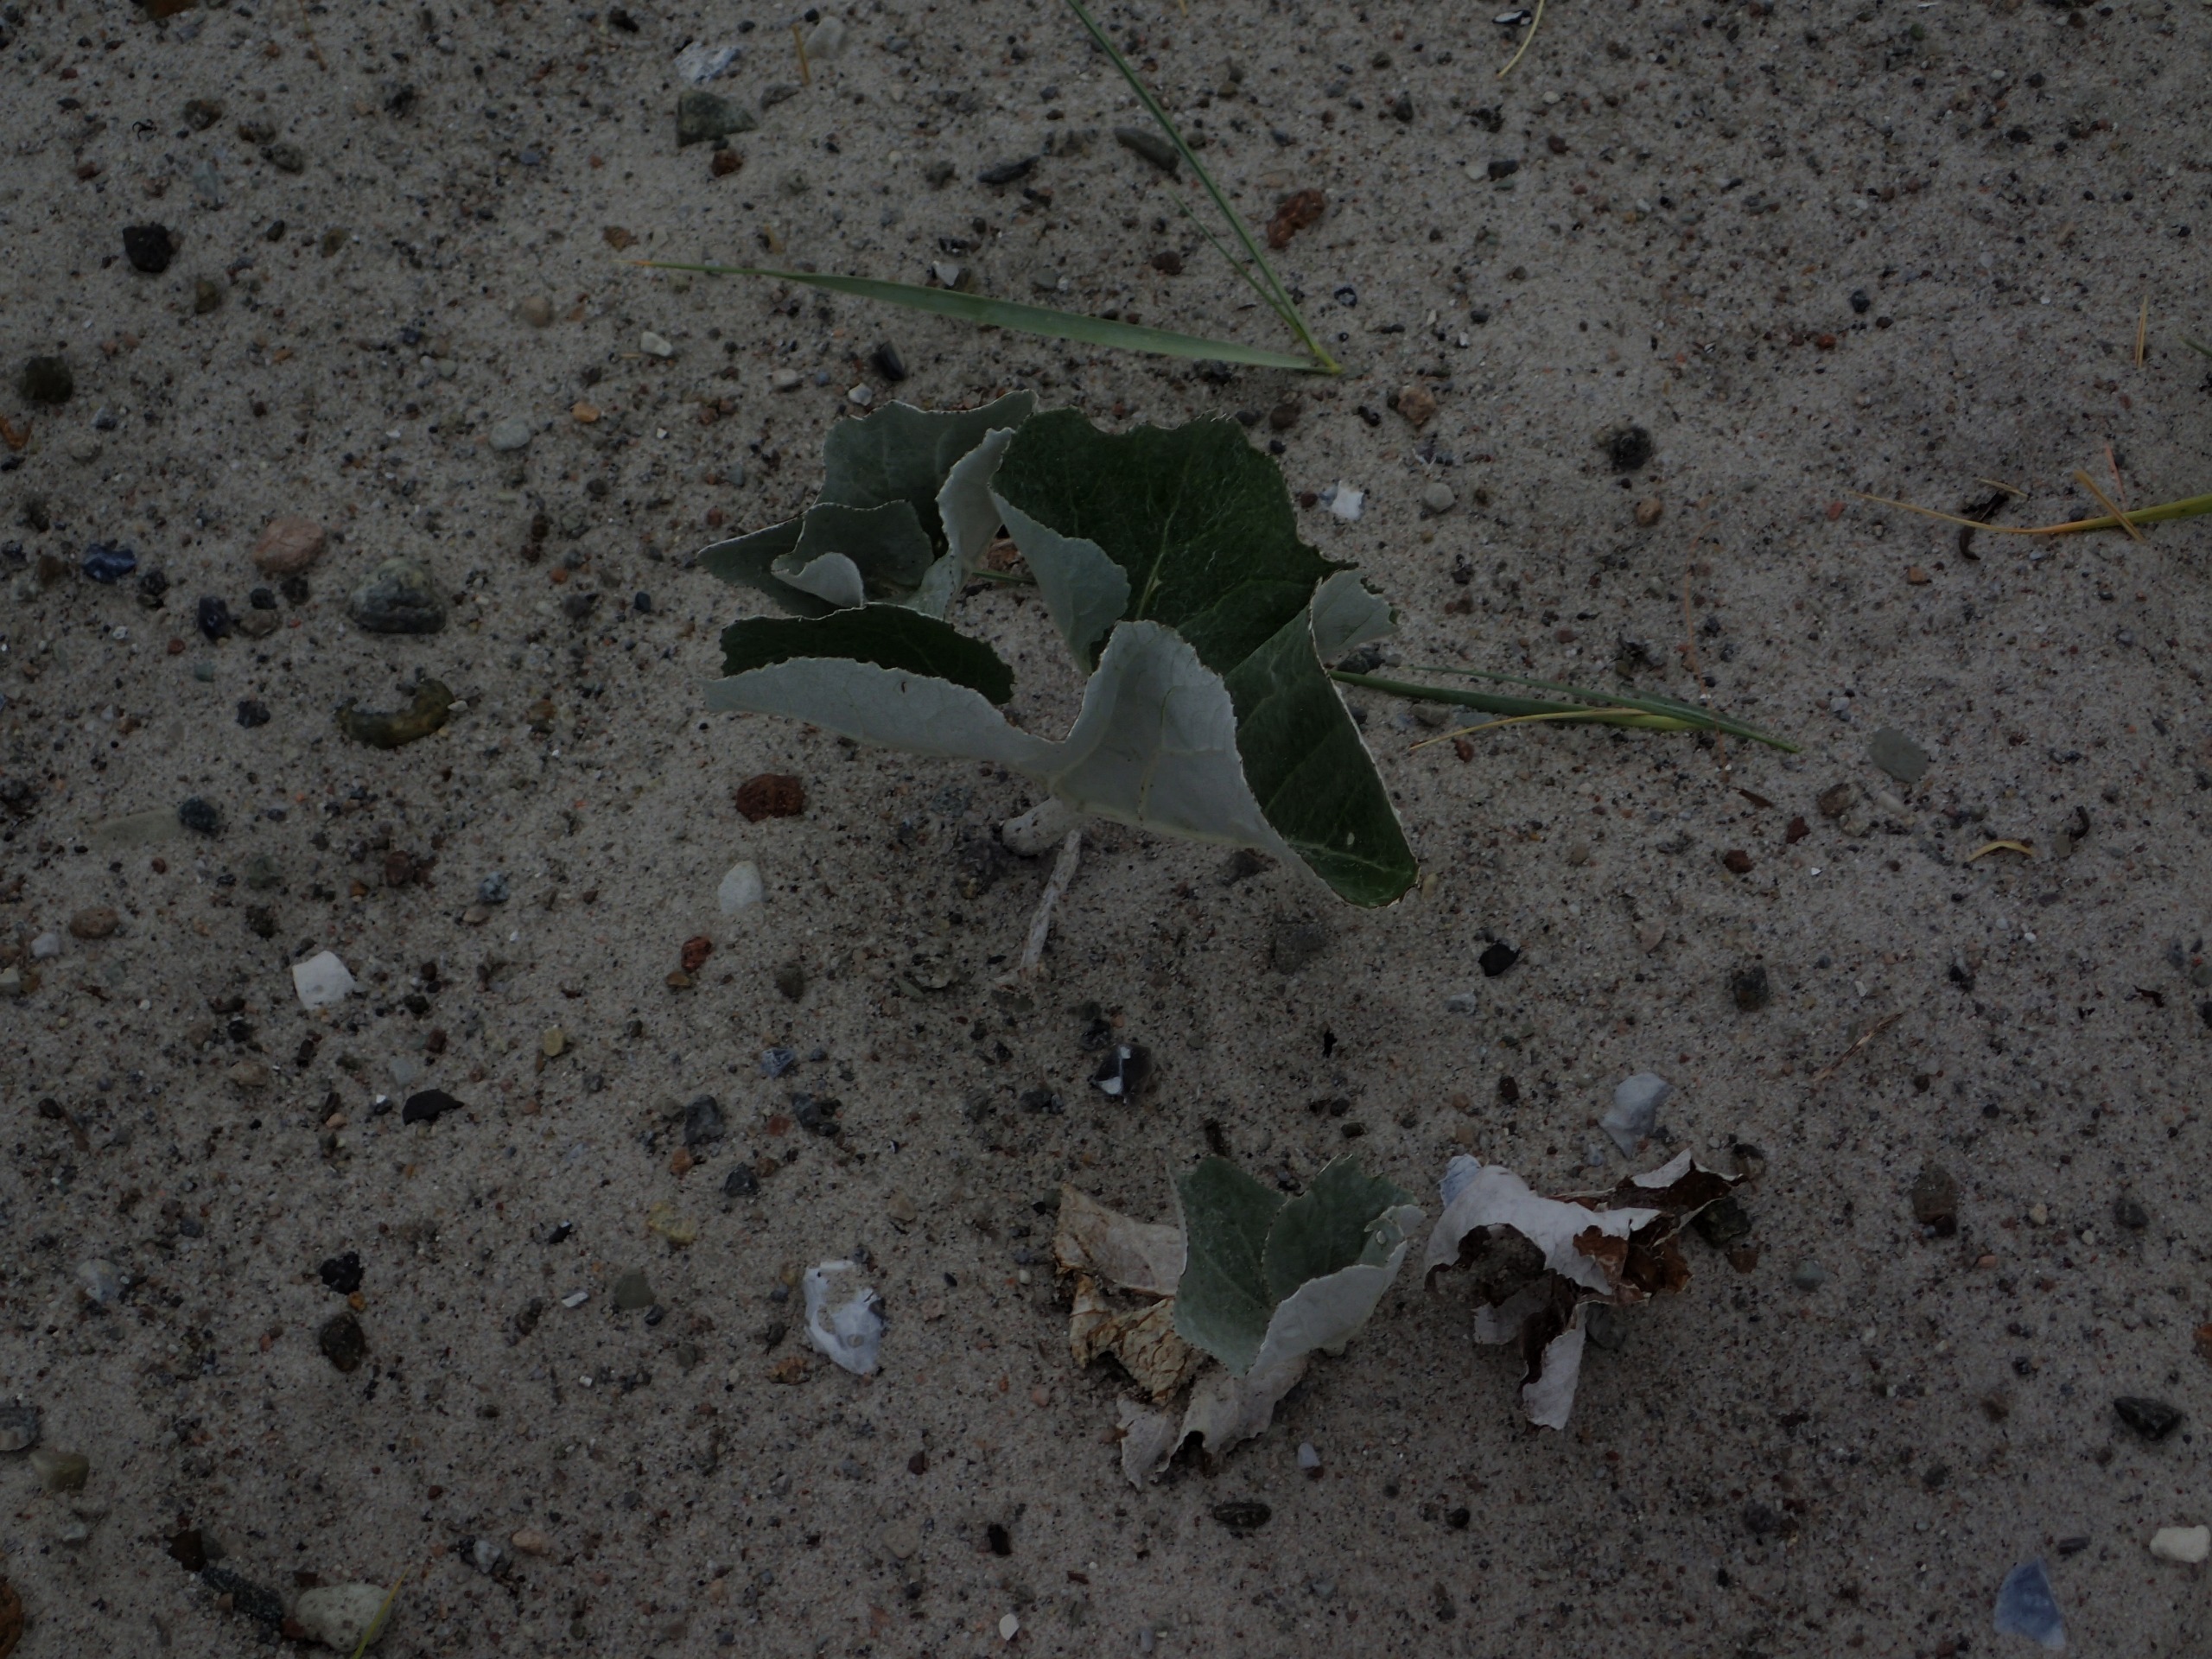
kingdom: Plantae
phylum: Tracheophyta
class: Magnoliopsida
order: Asterales
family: Asteraceae
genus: Petasites
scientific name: Petasites spurius
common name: Filtet hestehov
